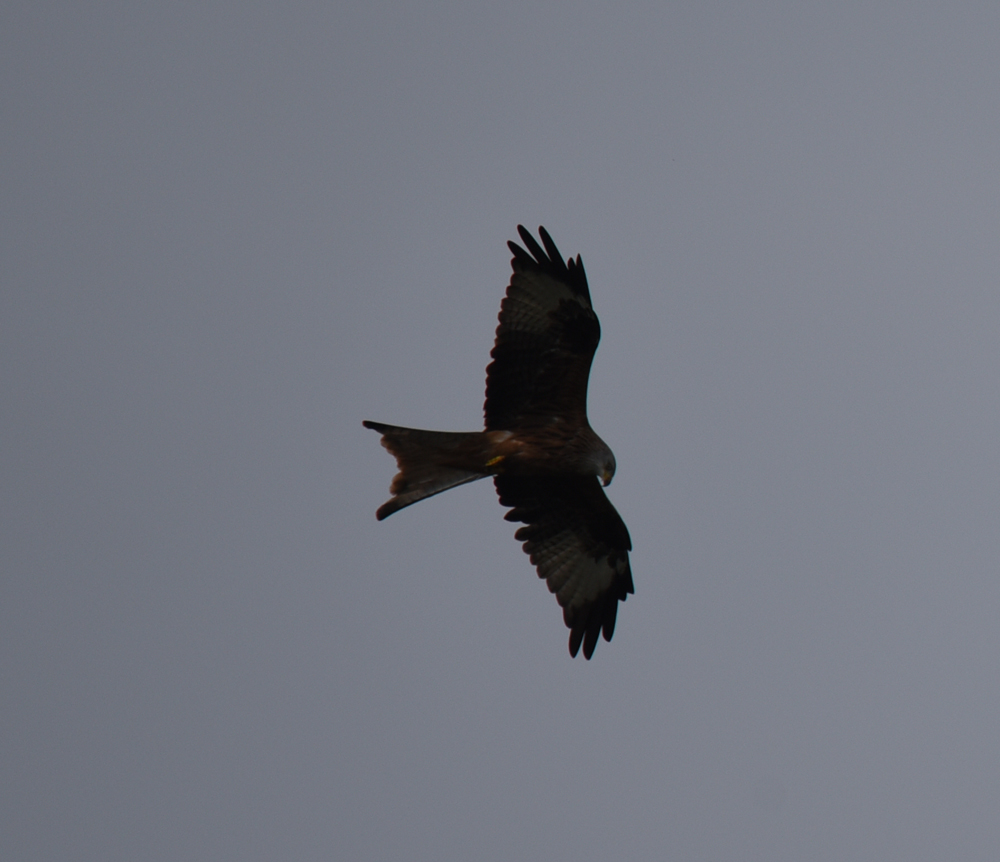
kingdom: Animalia
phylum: Chordata
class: Aves
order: Accipitriformes
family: Accipitridae
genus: Milvus
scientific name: Milvus milvus
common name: Red kite
